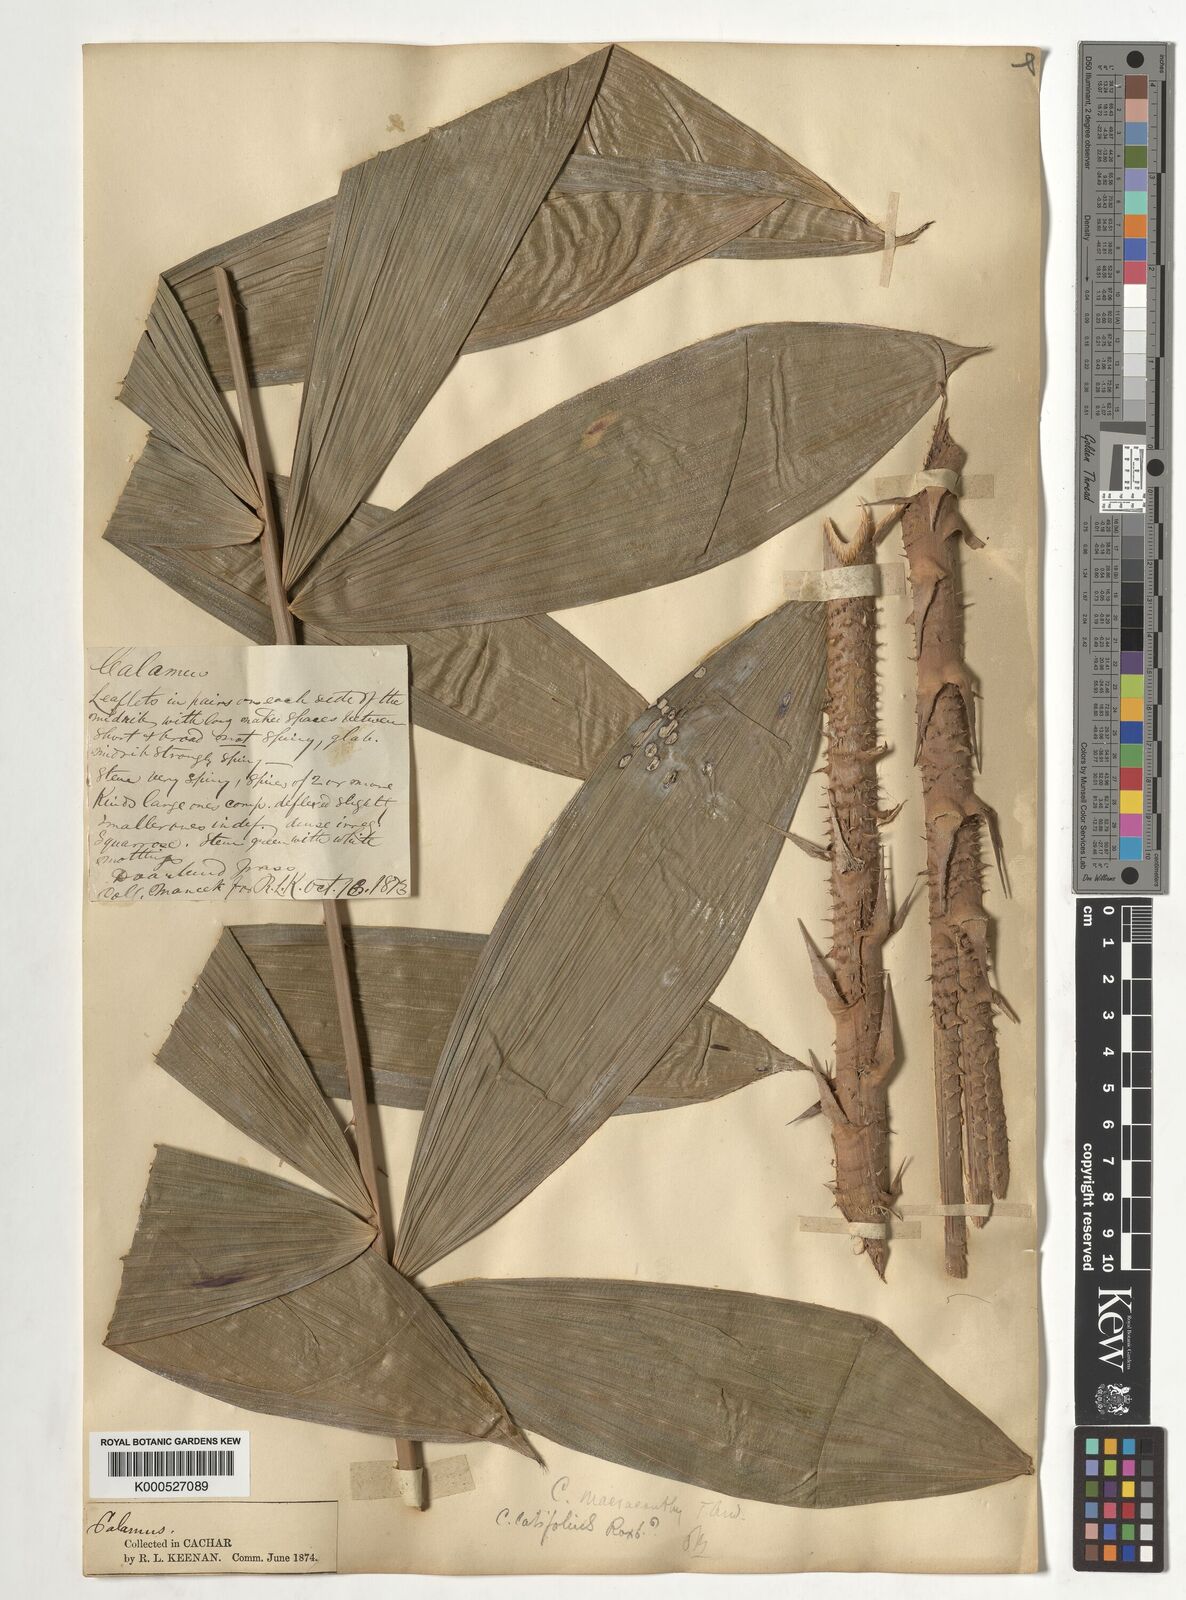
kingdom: Plantae
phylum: Tracheophyta
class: Liliopsida
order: Arecales
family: Arecaceae
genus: Calamus
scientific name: Calamus latifolius
